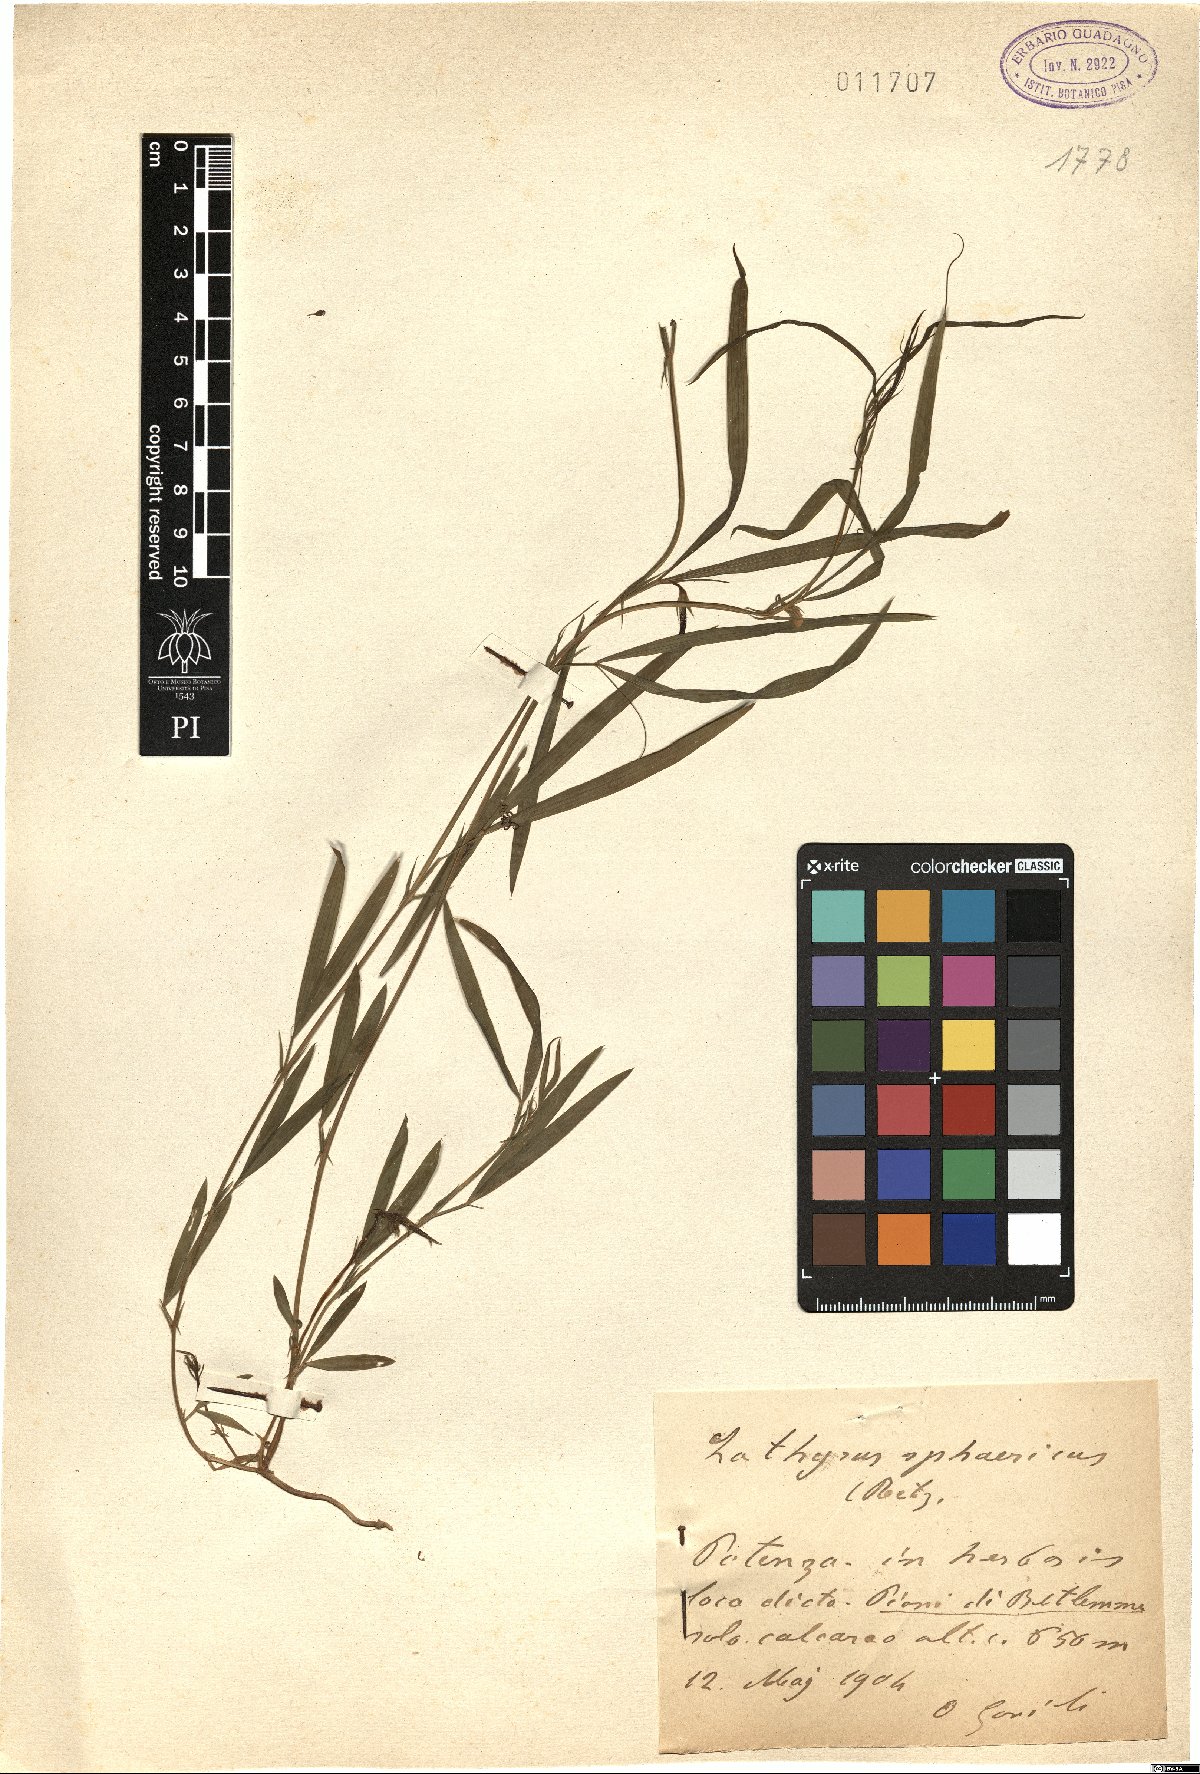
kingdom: Plantae
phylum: Tracheophyta
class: Magnoliopsida
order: Fabales
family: Fabaceae
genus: Lathyrus
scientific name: Lathyrus sphaericus
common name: Grass pea
